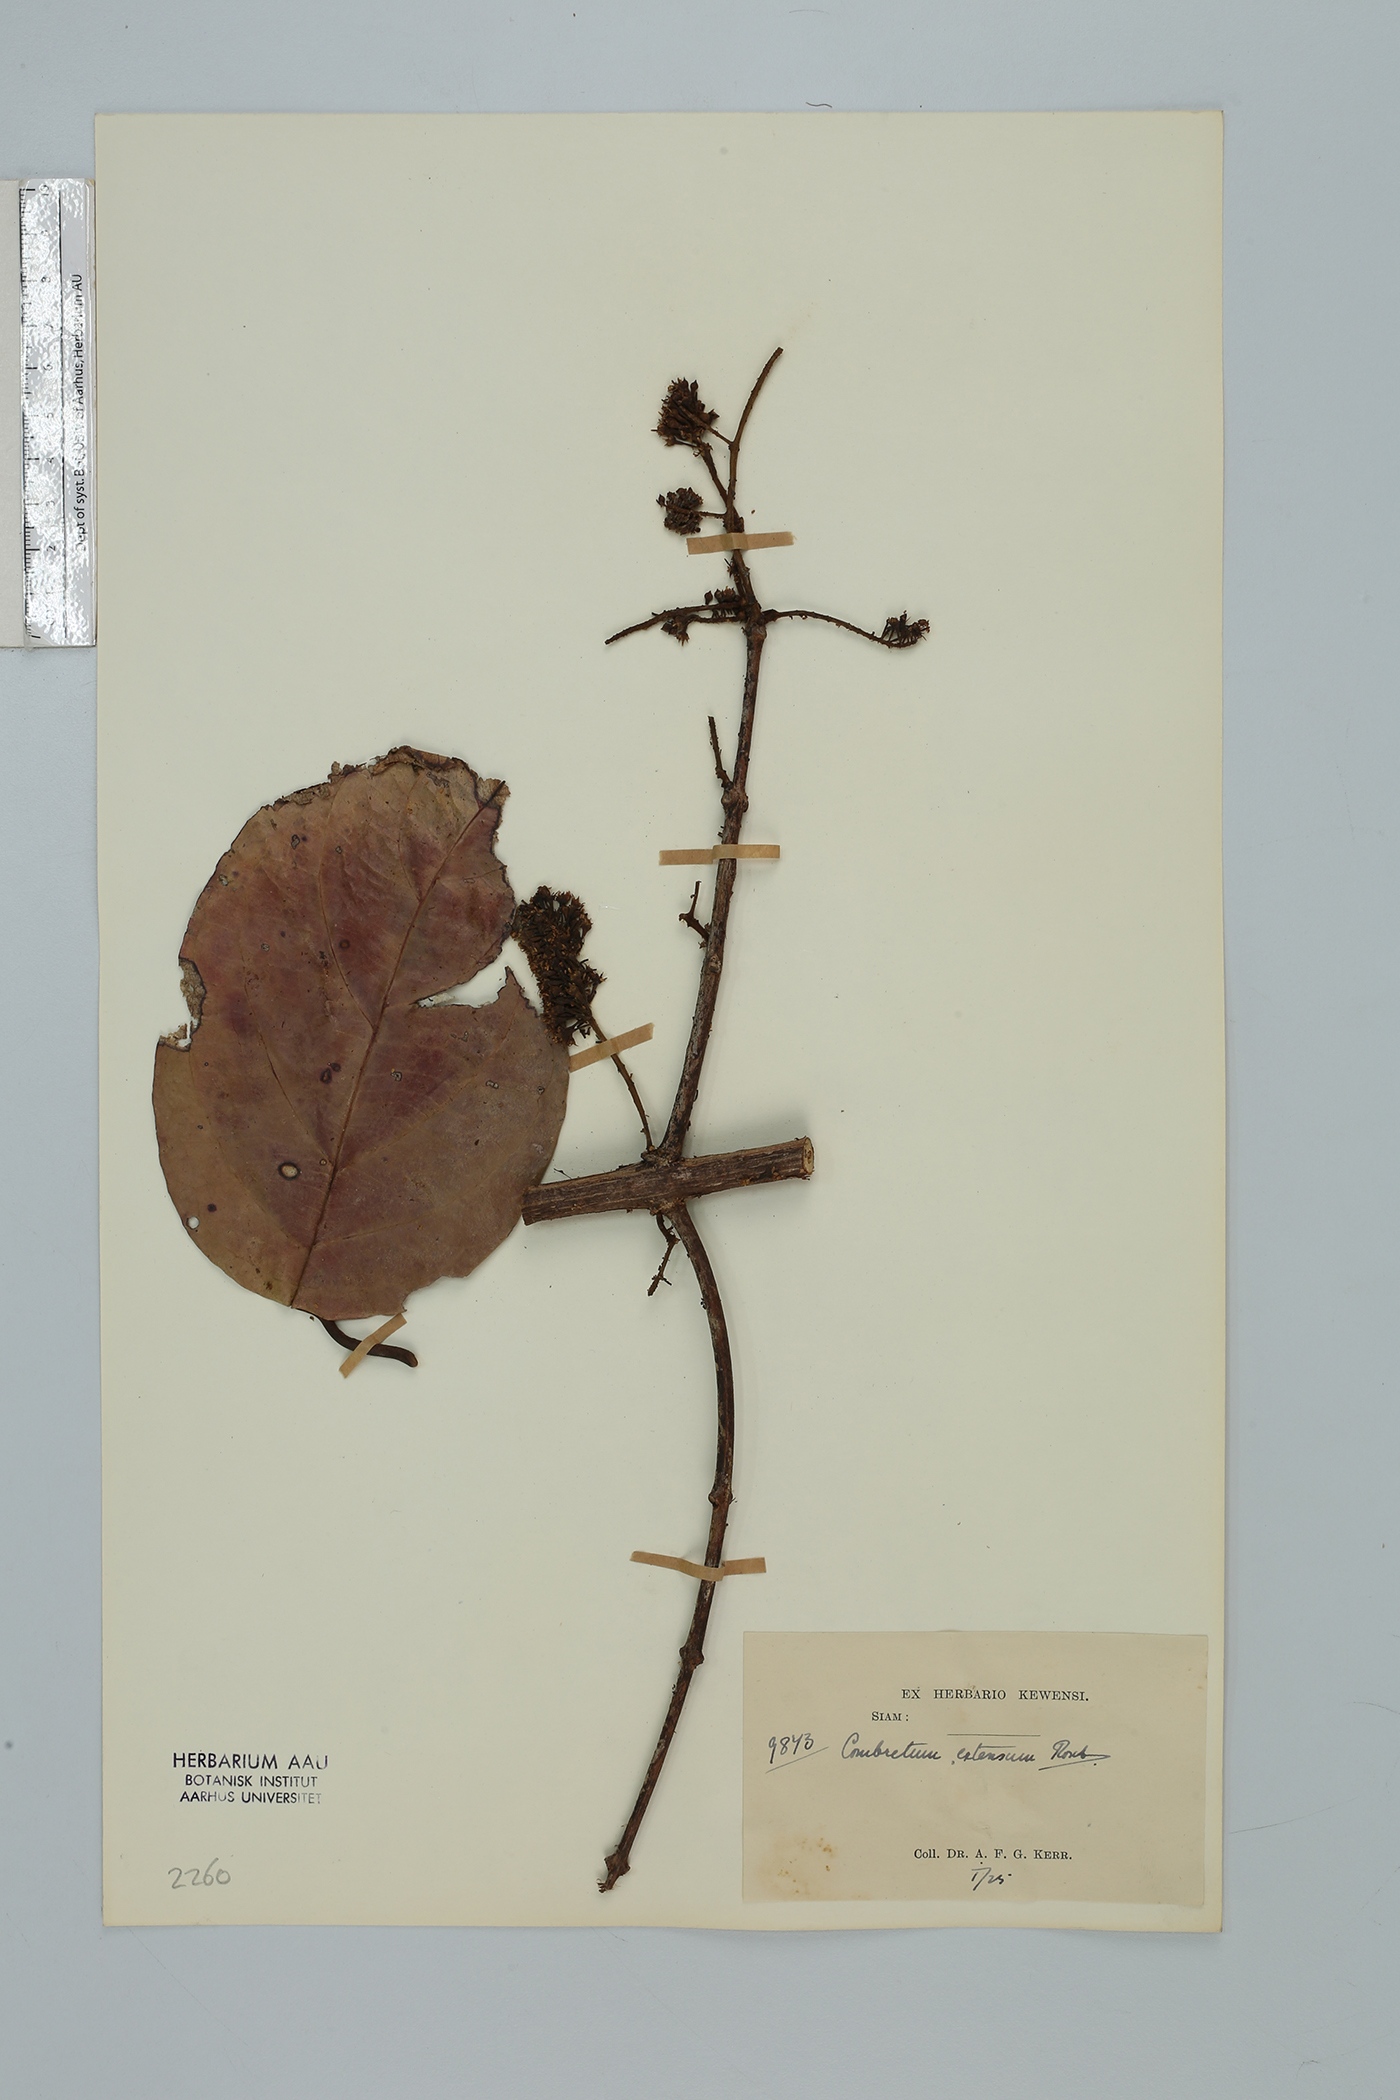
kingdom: Plantae
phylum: Tracheophyta
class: Magnoliopsida
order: Myrtales
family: Combretaceae
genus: Combretum
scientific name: Combretum latifolium
